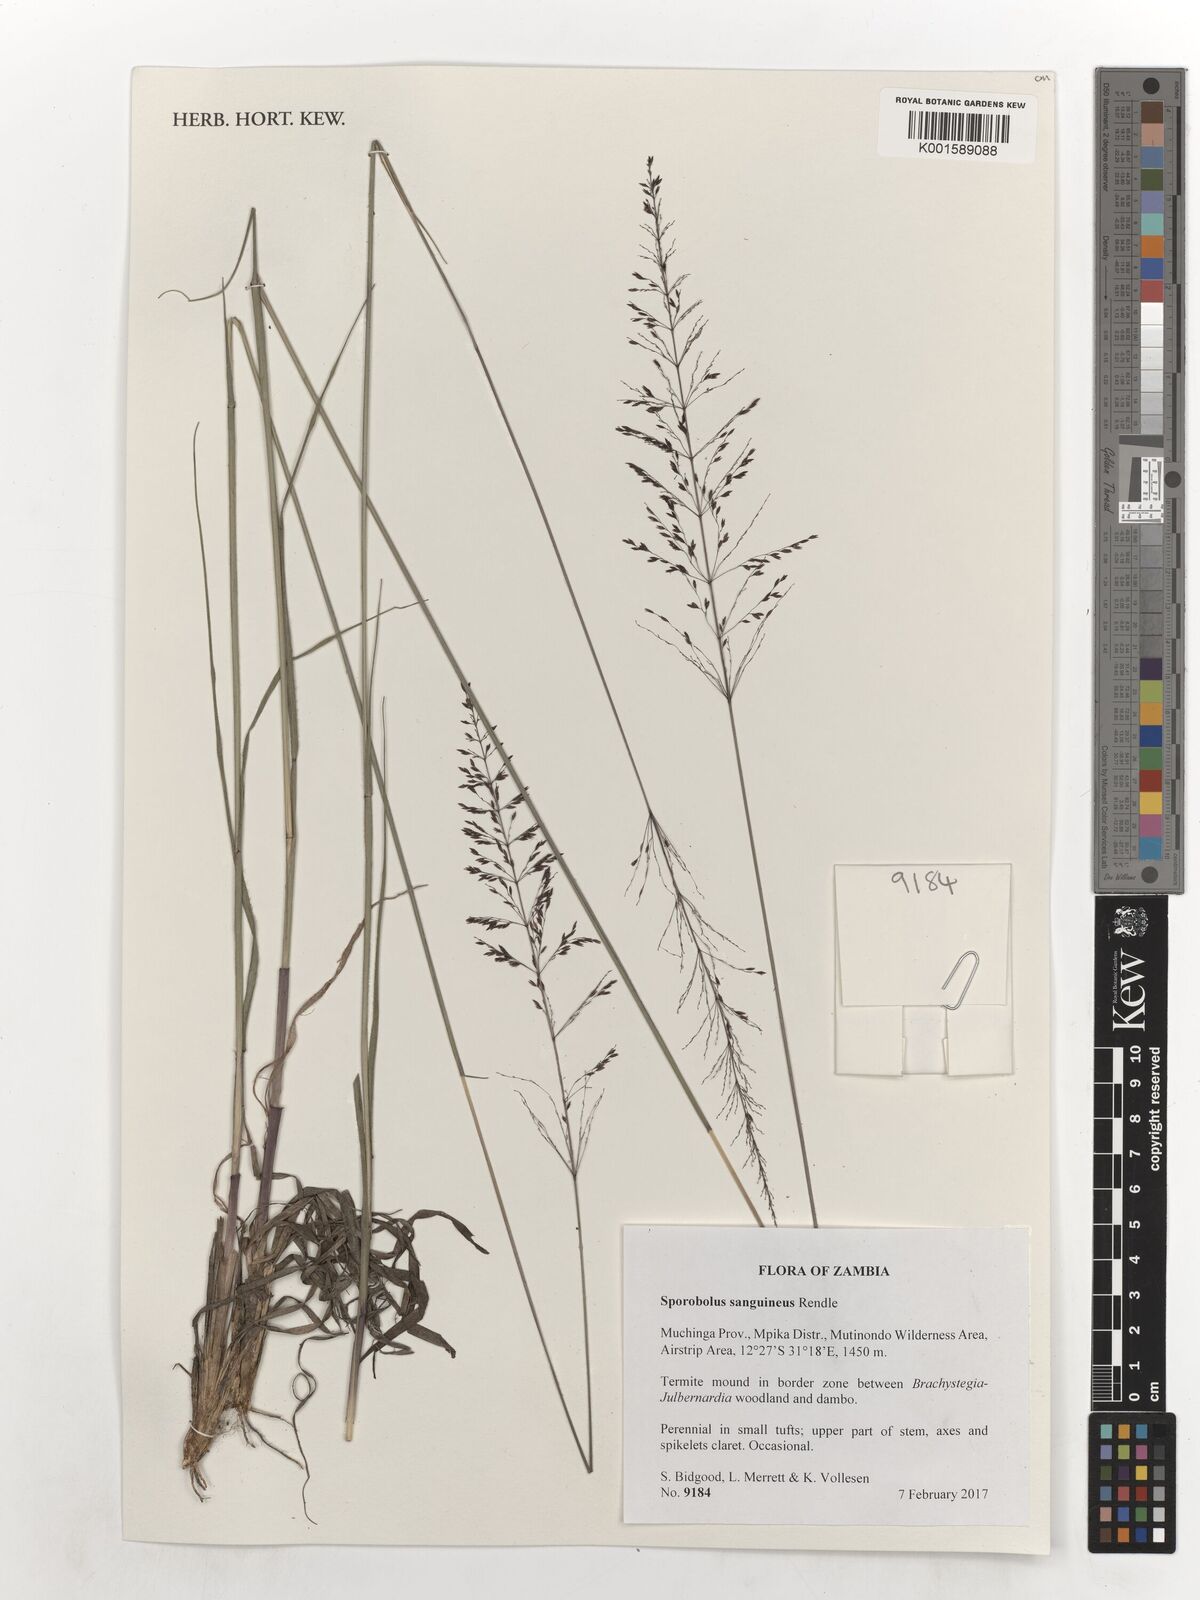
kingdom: Plantae
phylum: Tracheophyta
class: Liliopsida
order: Poales
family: Poaceae
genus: Sporobolus
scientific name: Sporobolus sanguineus
